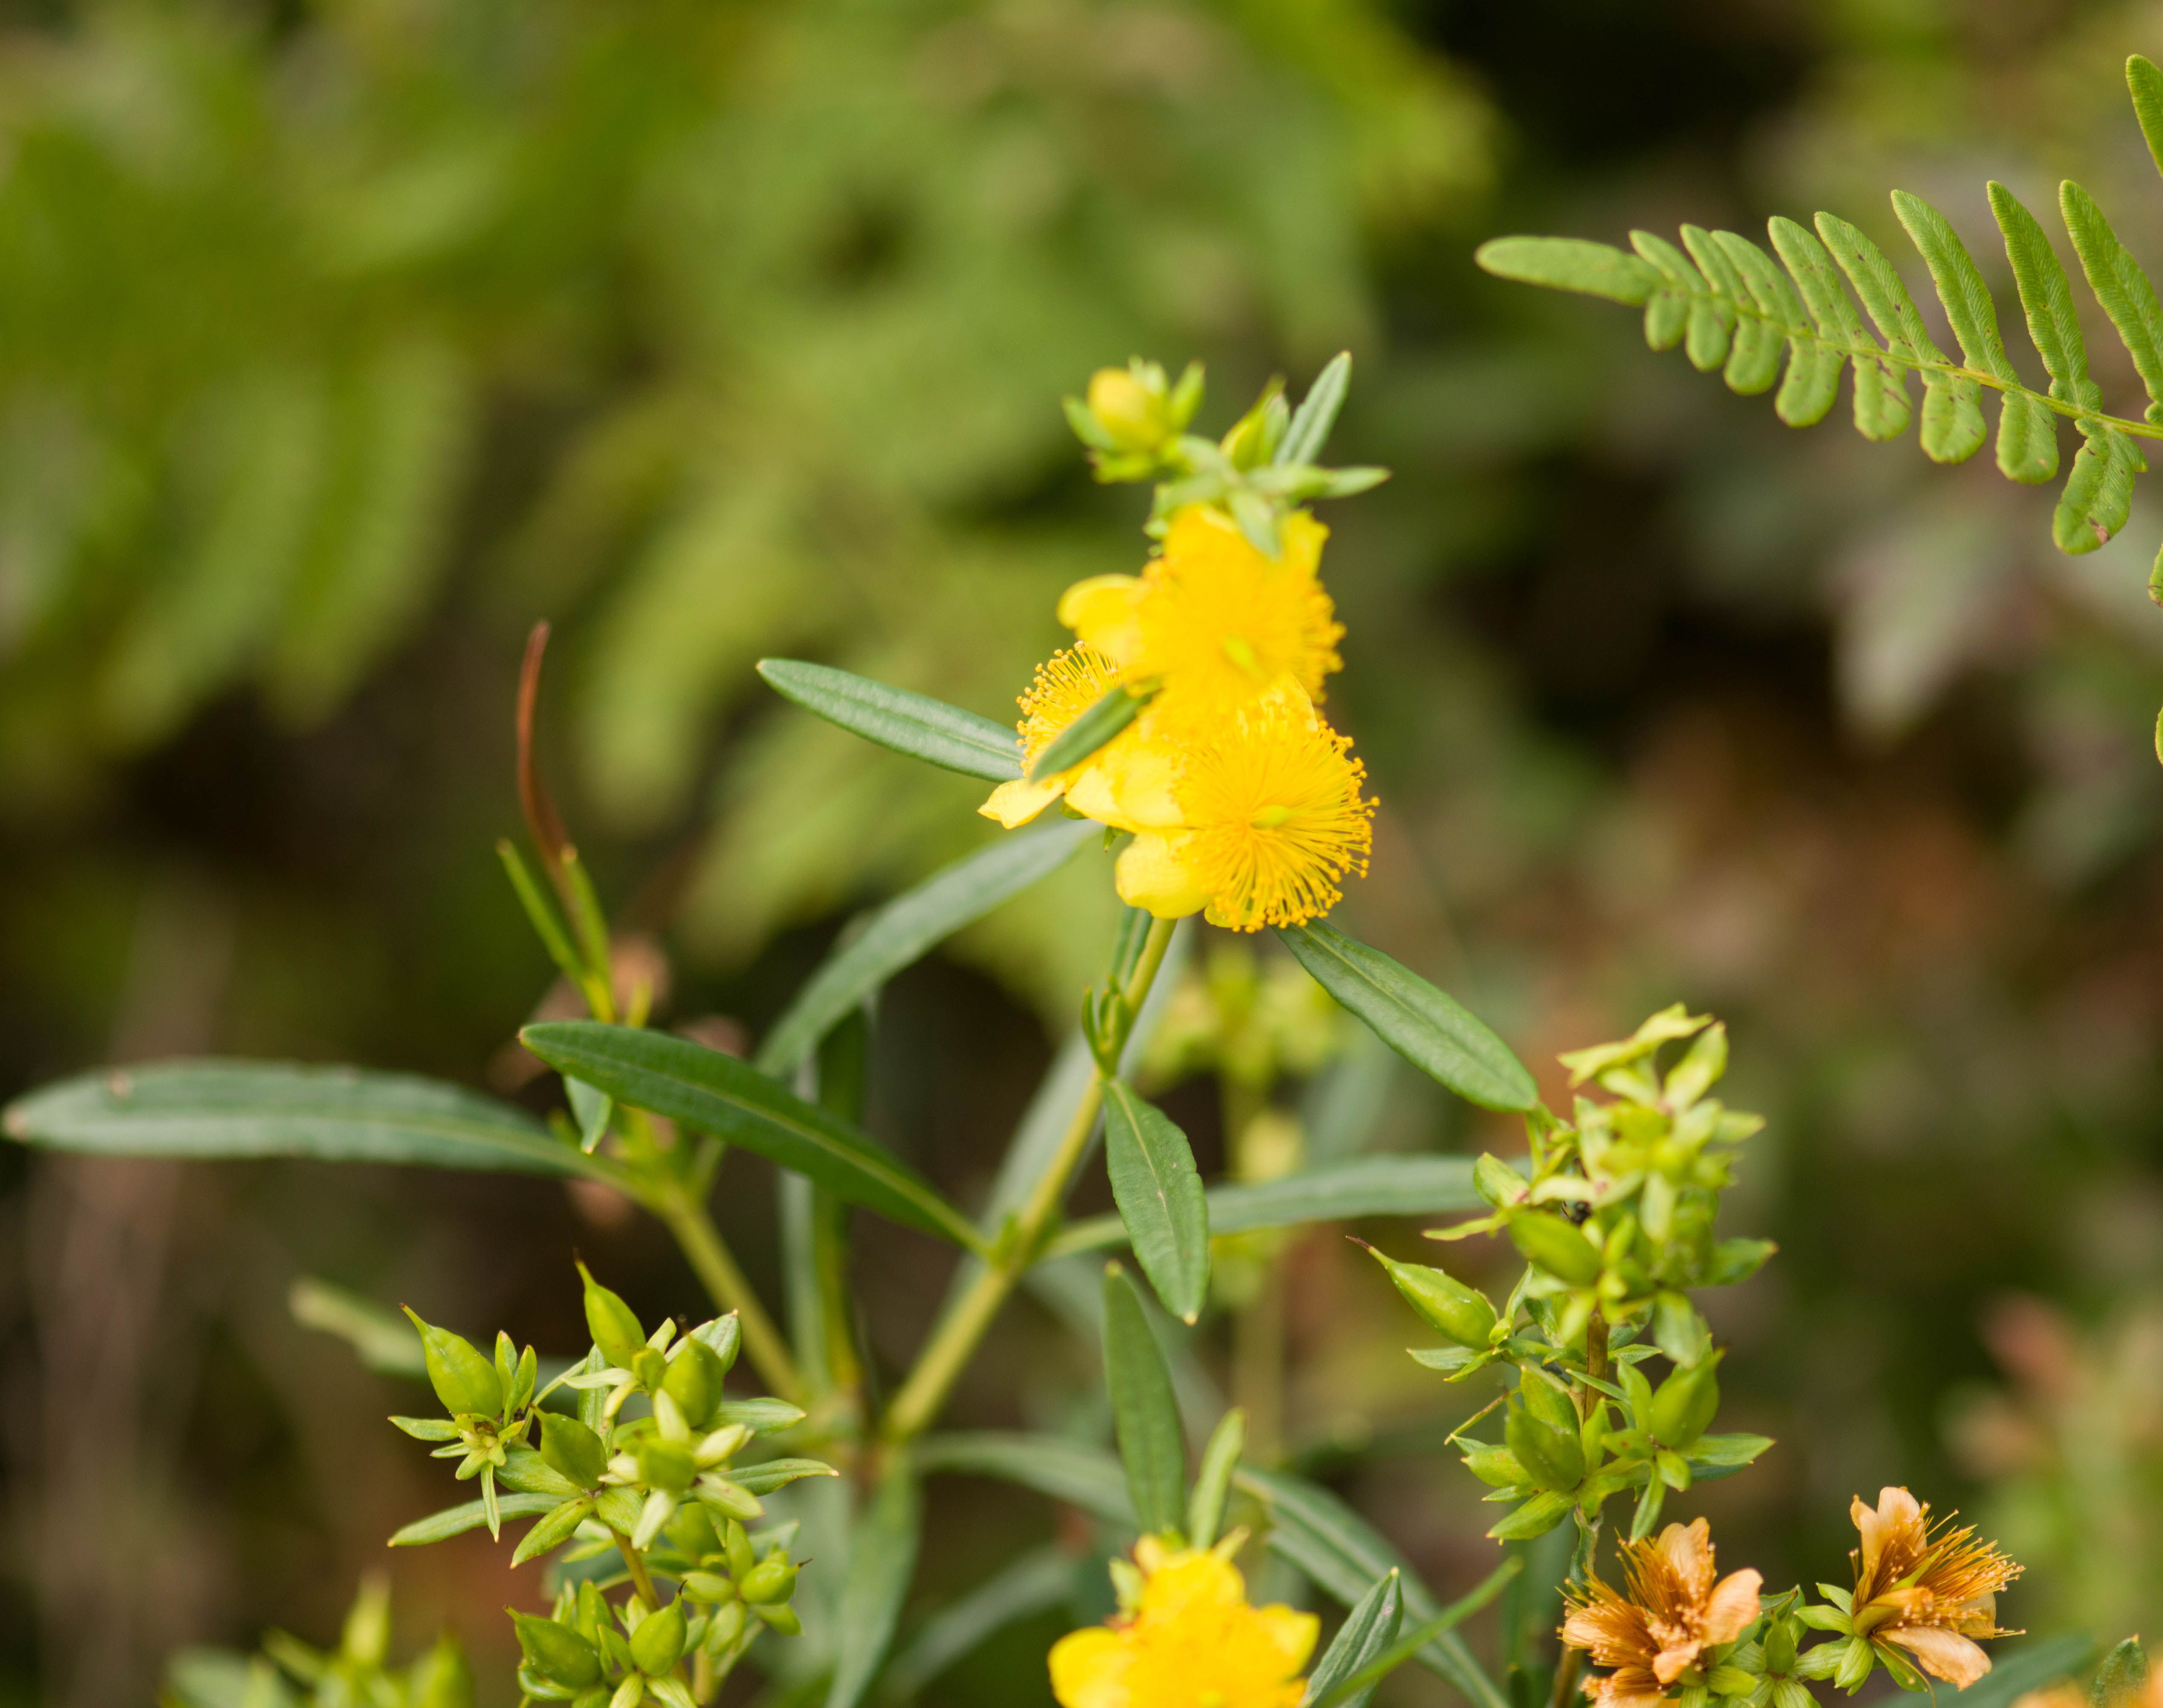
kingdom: Plantae
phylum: Tracheophyta
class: Magnoliopsida
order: Malpighiales
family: Hypericaceae
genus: Hypericum
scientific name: Hypericum prolificum
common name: Shrubby st. john's-wort
